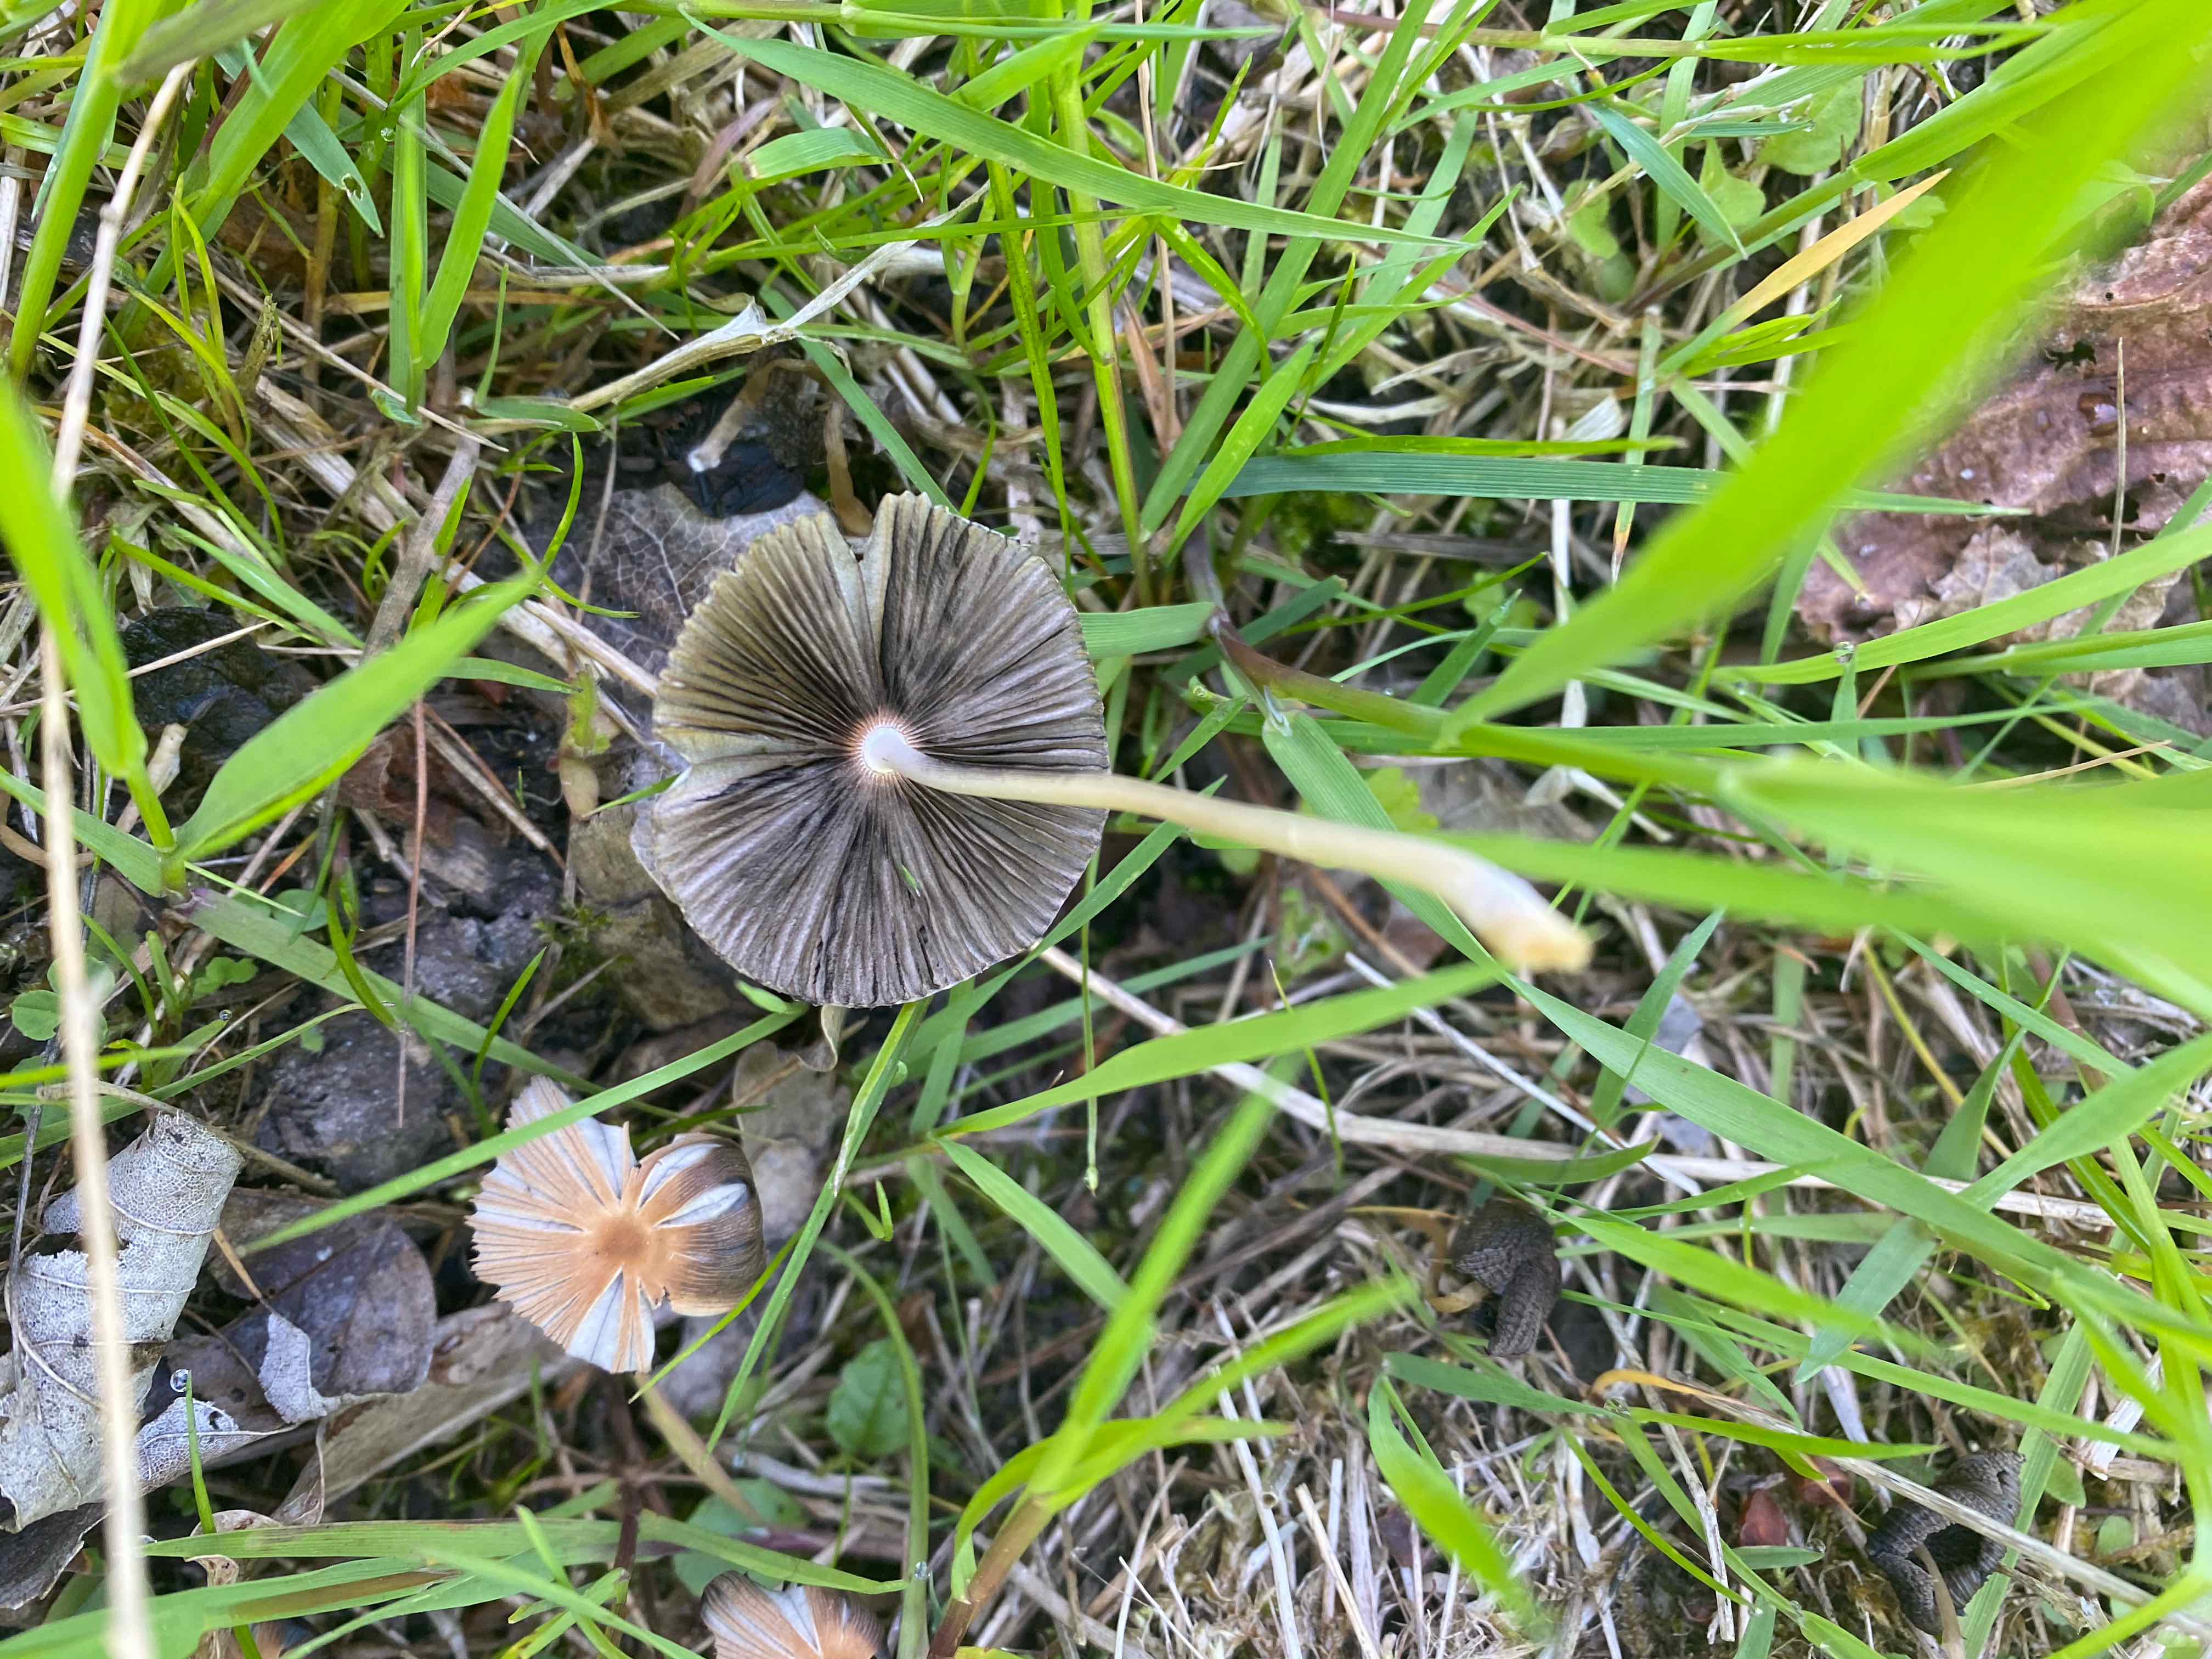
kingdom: Fungi
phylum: Basidiomycota
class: Agaricomycetes
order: Agaricales
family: Psathyrellaceae
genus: Parasola
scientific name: Parasola
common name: hjulhat
